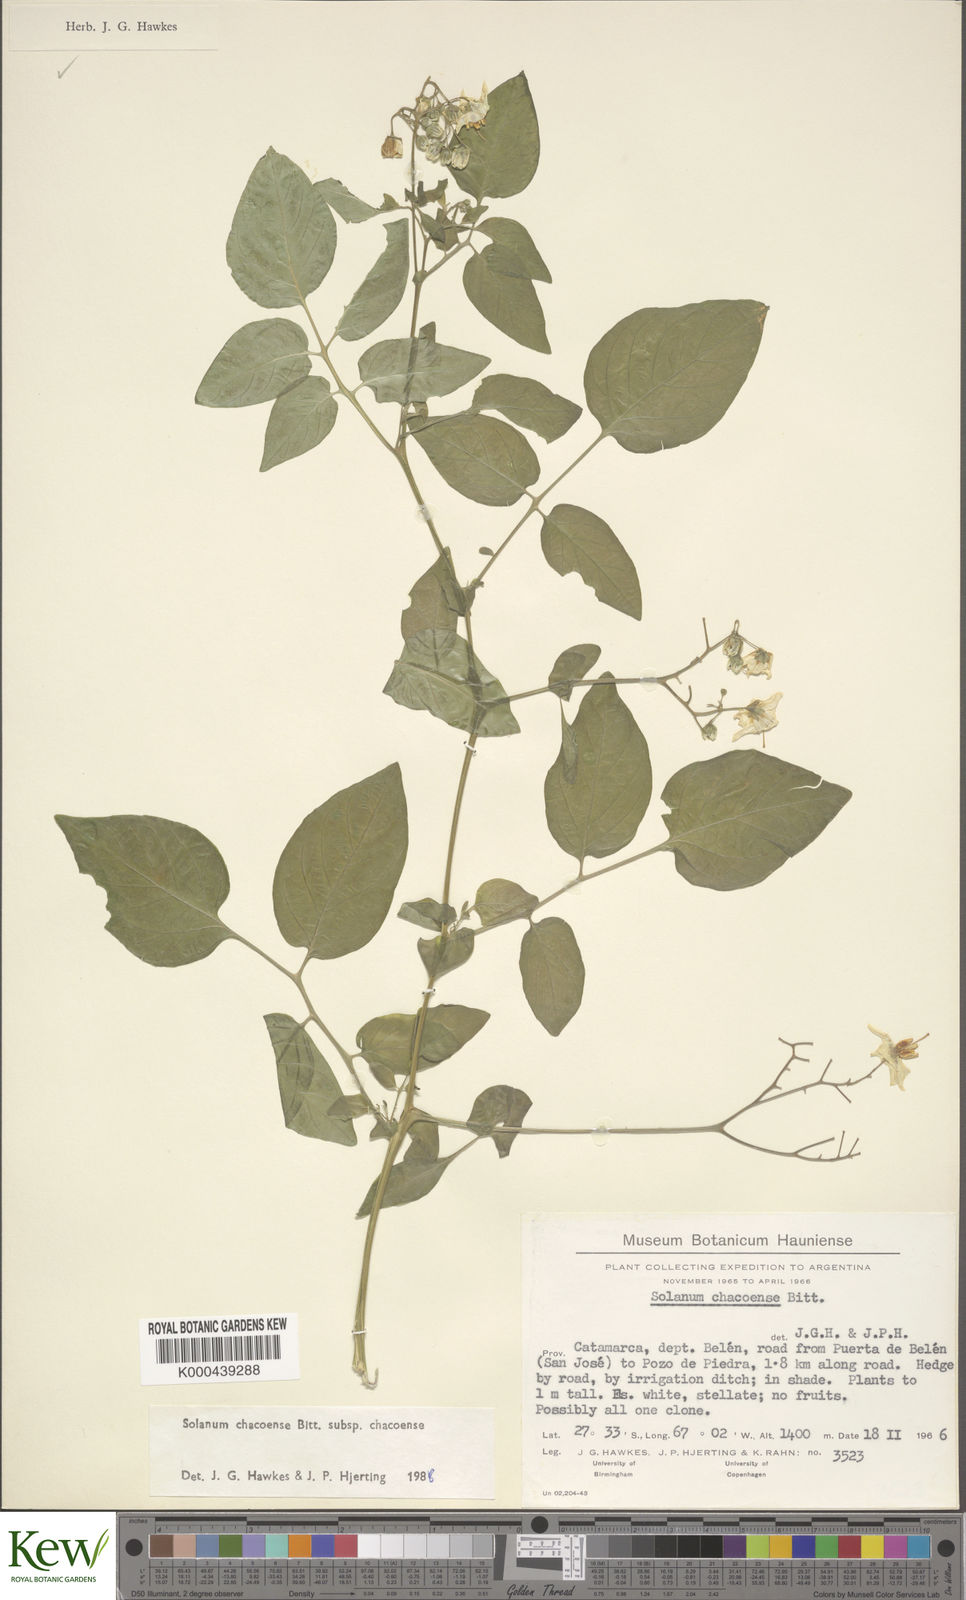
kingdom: Plantae
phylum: Tracheophyta
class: Magnoliopsida
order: Solanales
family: Solanaceae
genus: Solanum
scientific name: Solanum chacoense
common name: Chaco potato
